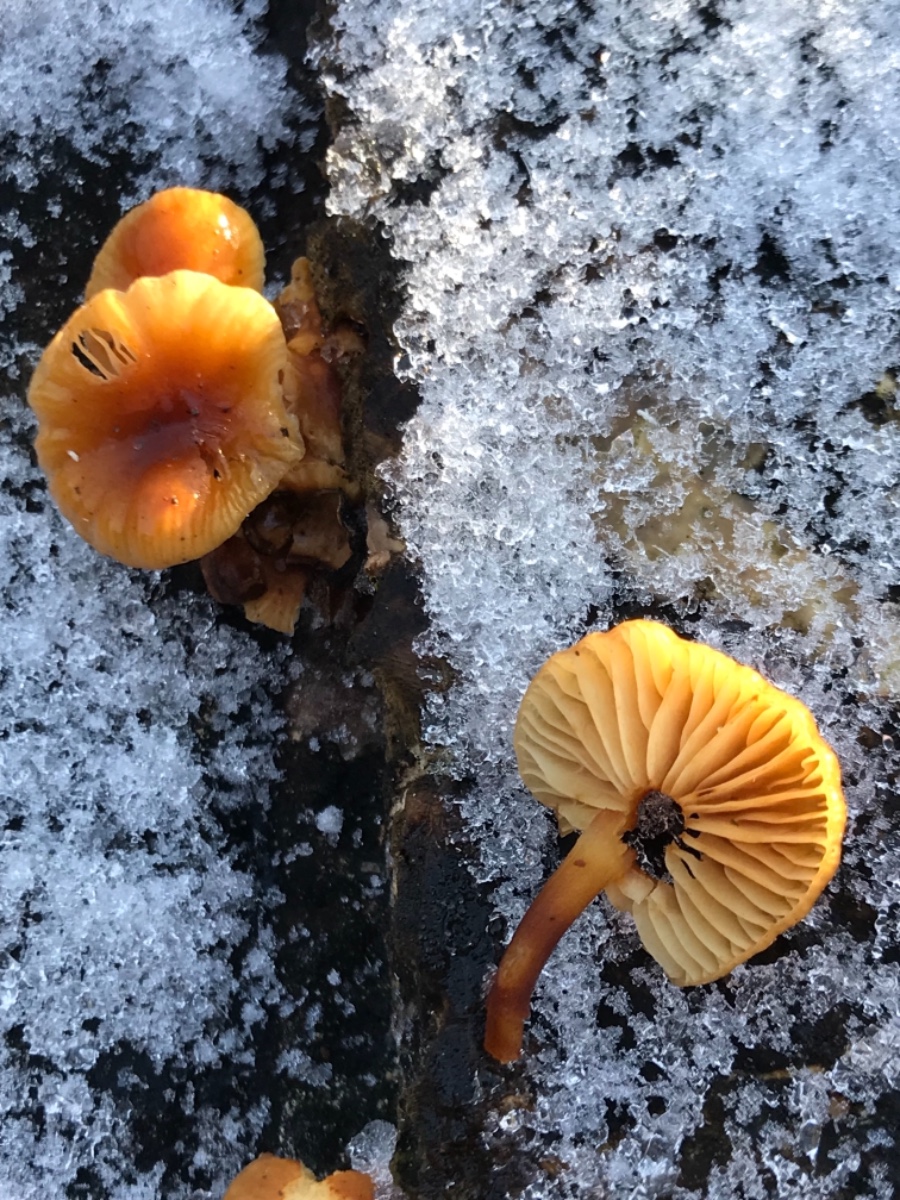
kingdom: Fungi
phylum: Basidiomycota
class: Agaricomycetes
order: Agaricales
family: Physalacriaceae
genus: Flammulina
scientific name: Flammulina
